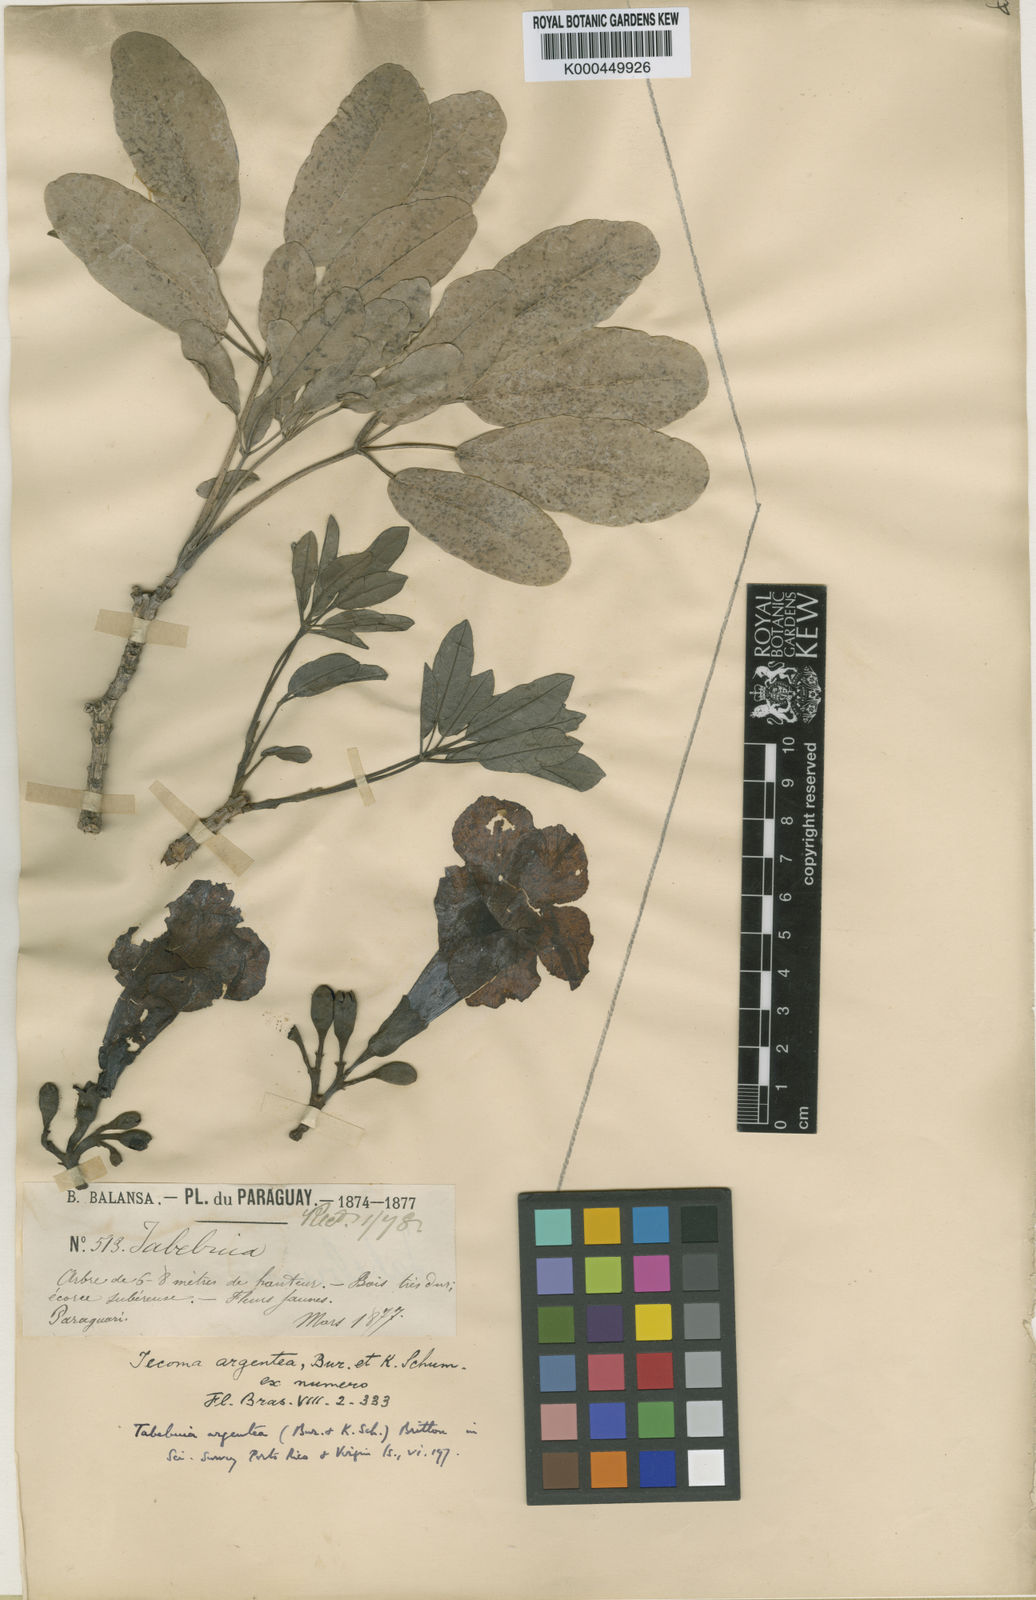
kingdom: Plantae
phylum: Tracheophyta
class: Magnoliopsida
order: Lamiales
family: Bignoniaceae
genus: Tabebuia
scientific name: Tabebuia aurea
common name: Caribbean trumpet-tree
